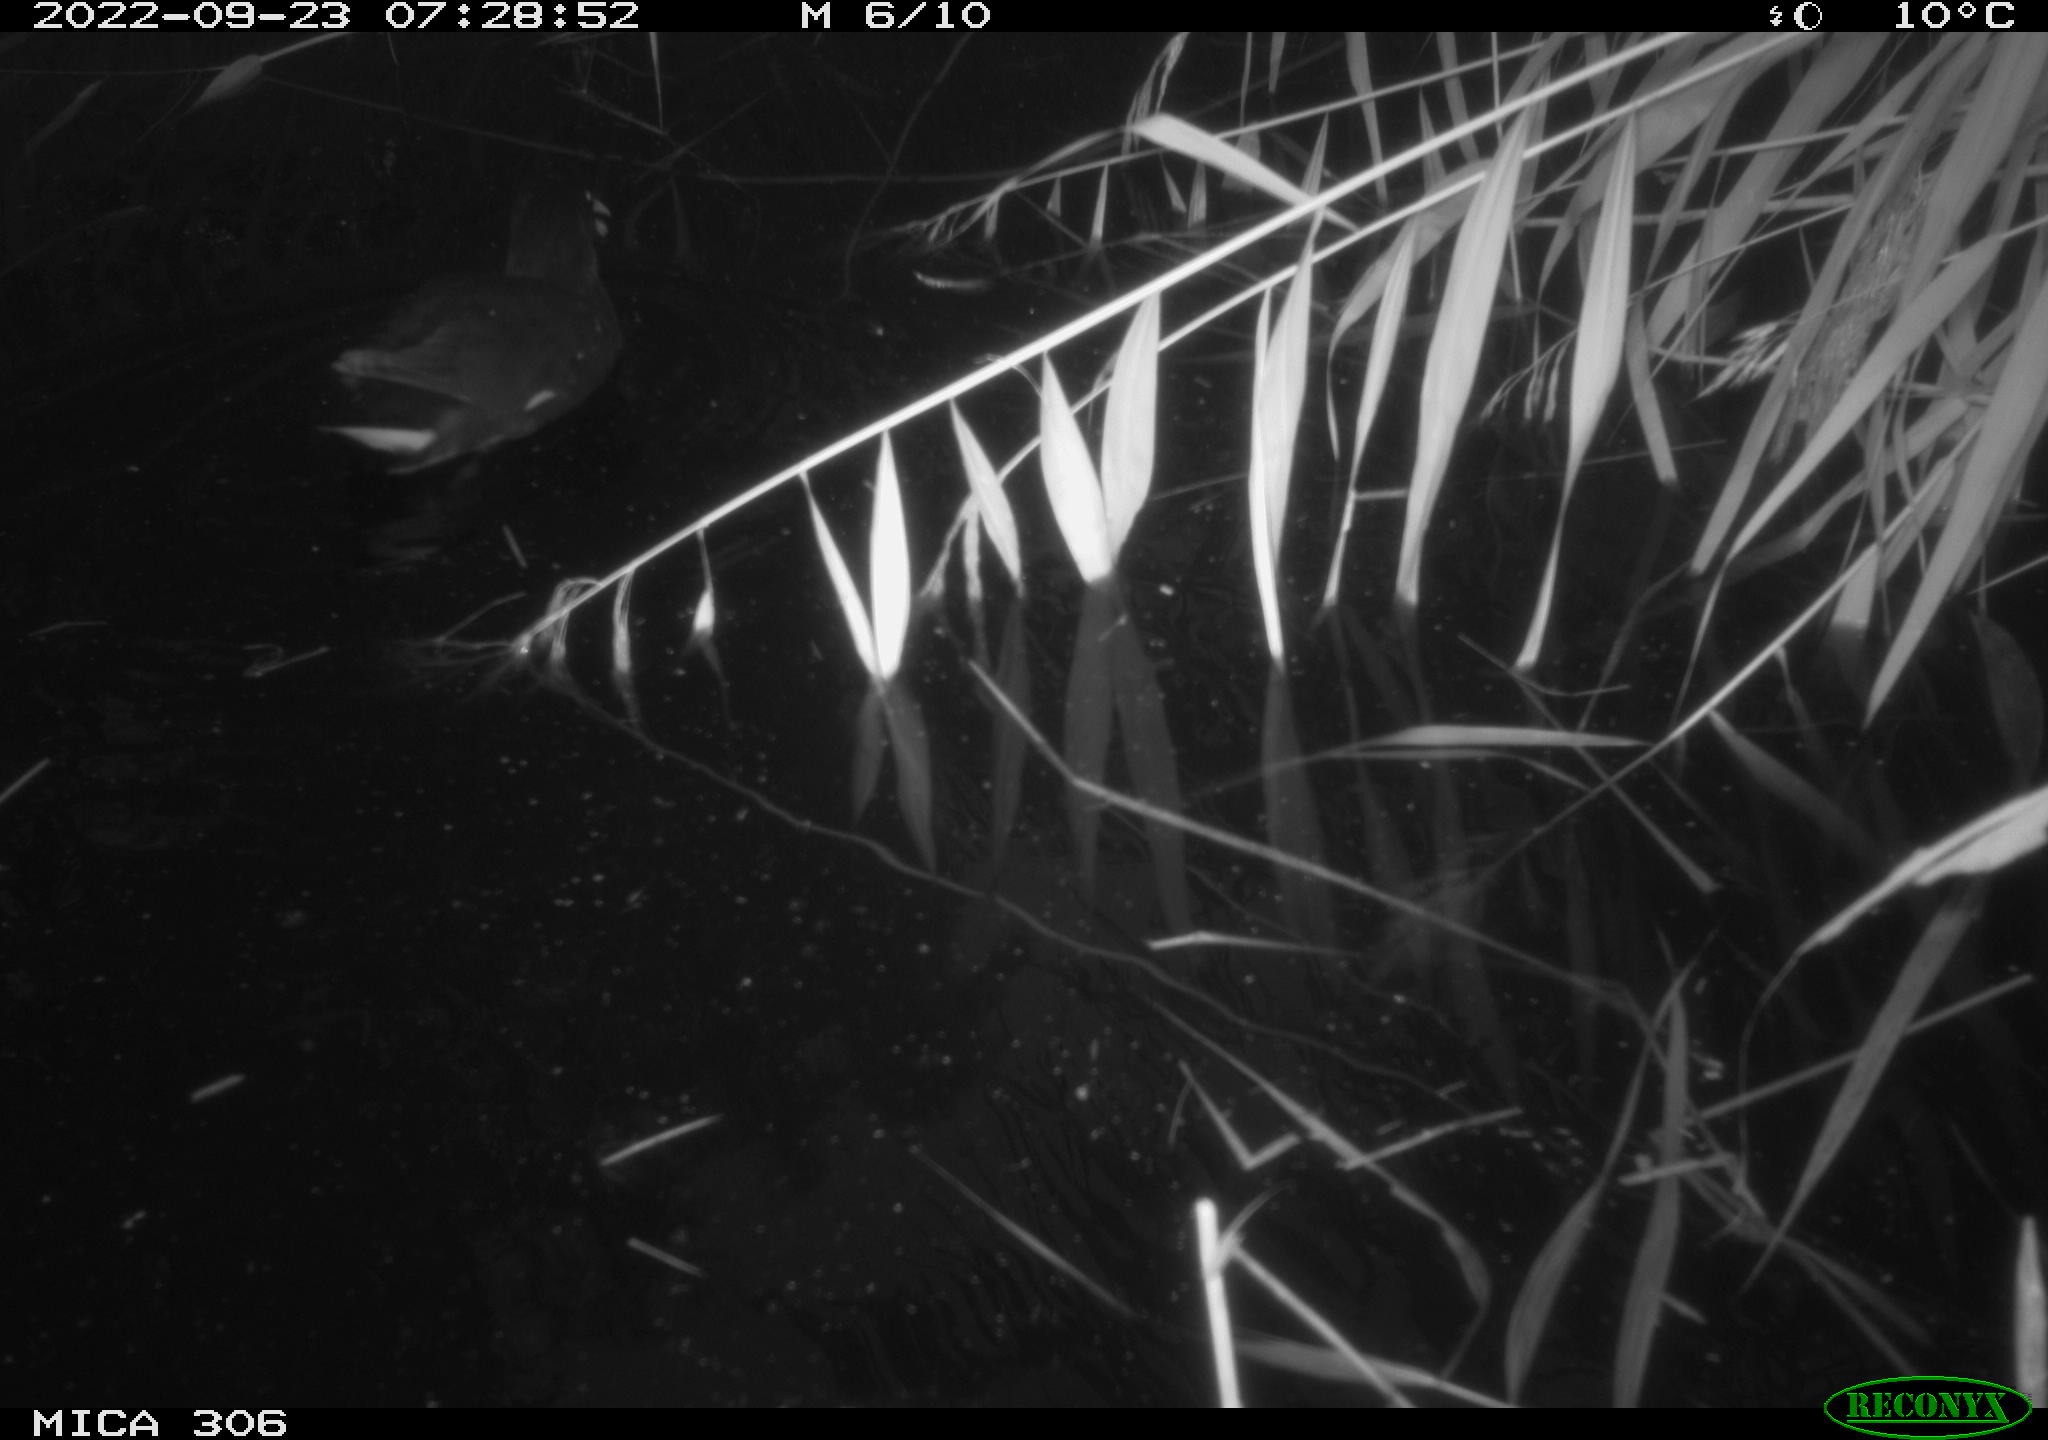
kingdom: Animalia
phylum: Chordata
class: Aves
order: Gruiformes
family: Rallidae
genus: Gallinula
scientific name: Gallinula chloropus
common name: Common moorhen
